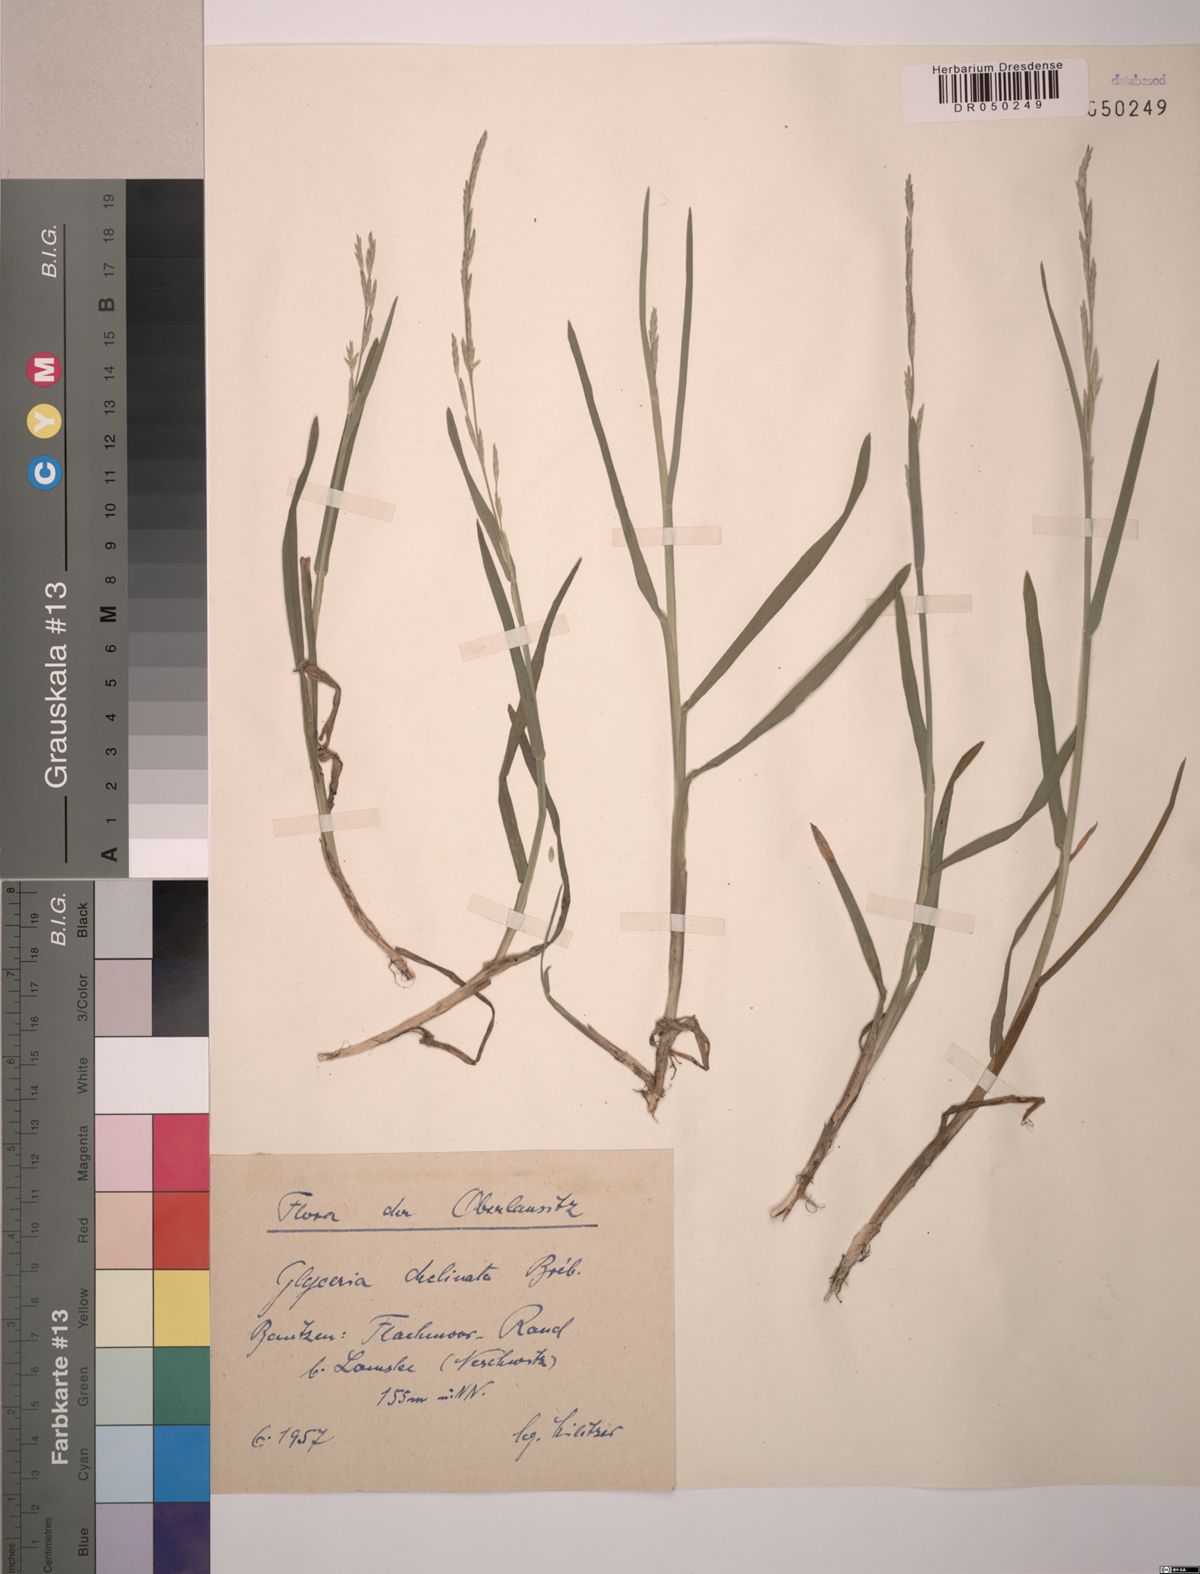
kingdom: Plantae
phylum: Tracheophyta
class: Liliopsida
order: Poales
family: Poaceae
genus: Glyceria
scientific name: Glyceria declinata
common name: Small sweet-grass
